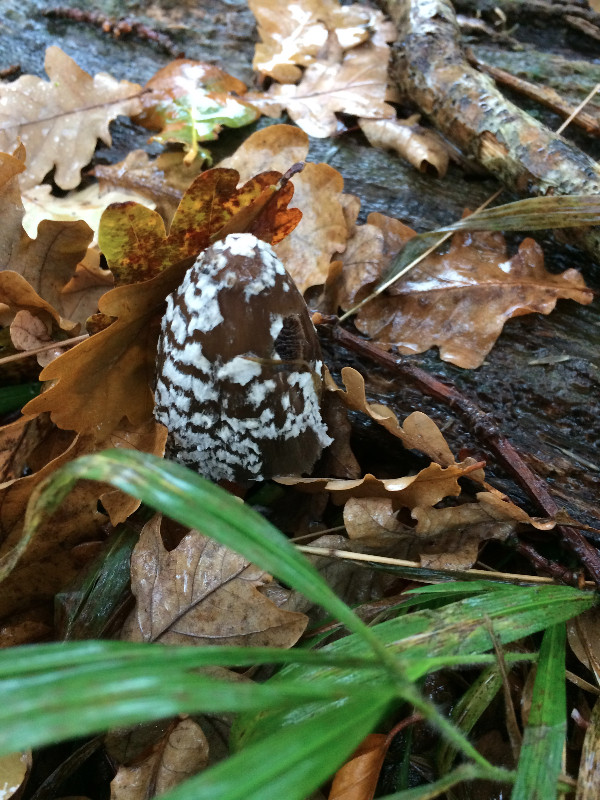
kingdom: Fungi
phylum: Basidiomycota
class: Agaricomycetes
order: Agaricales
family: Psathyrellaceae
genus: Coprinopsis
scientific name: Coprinopsis picacea
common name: skade-blækhat
